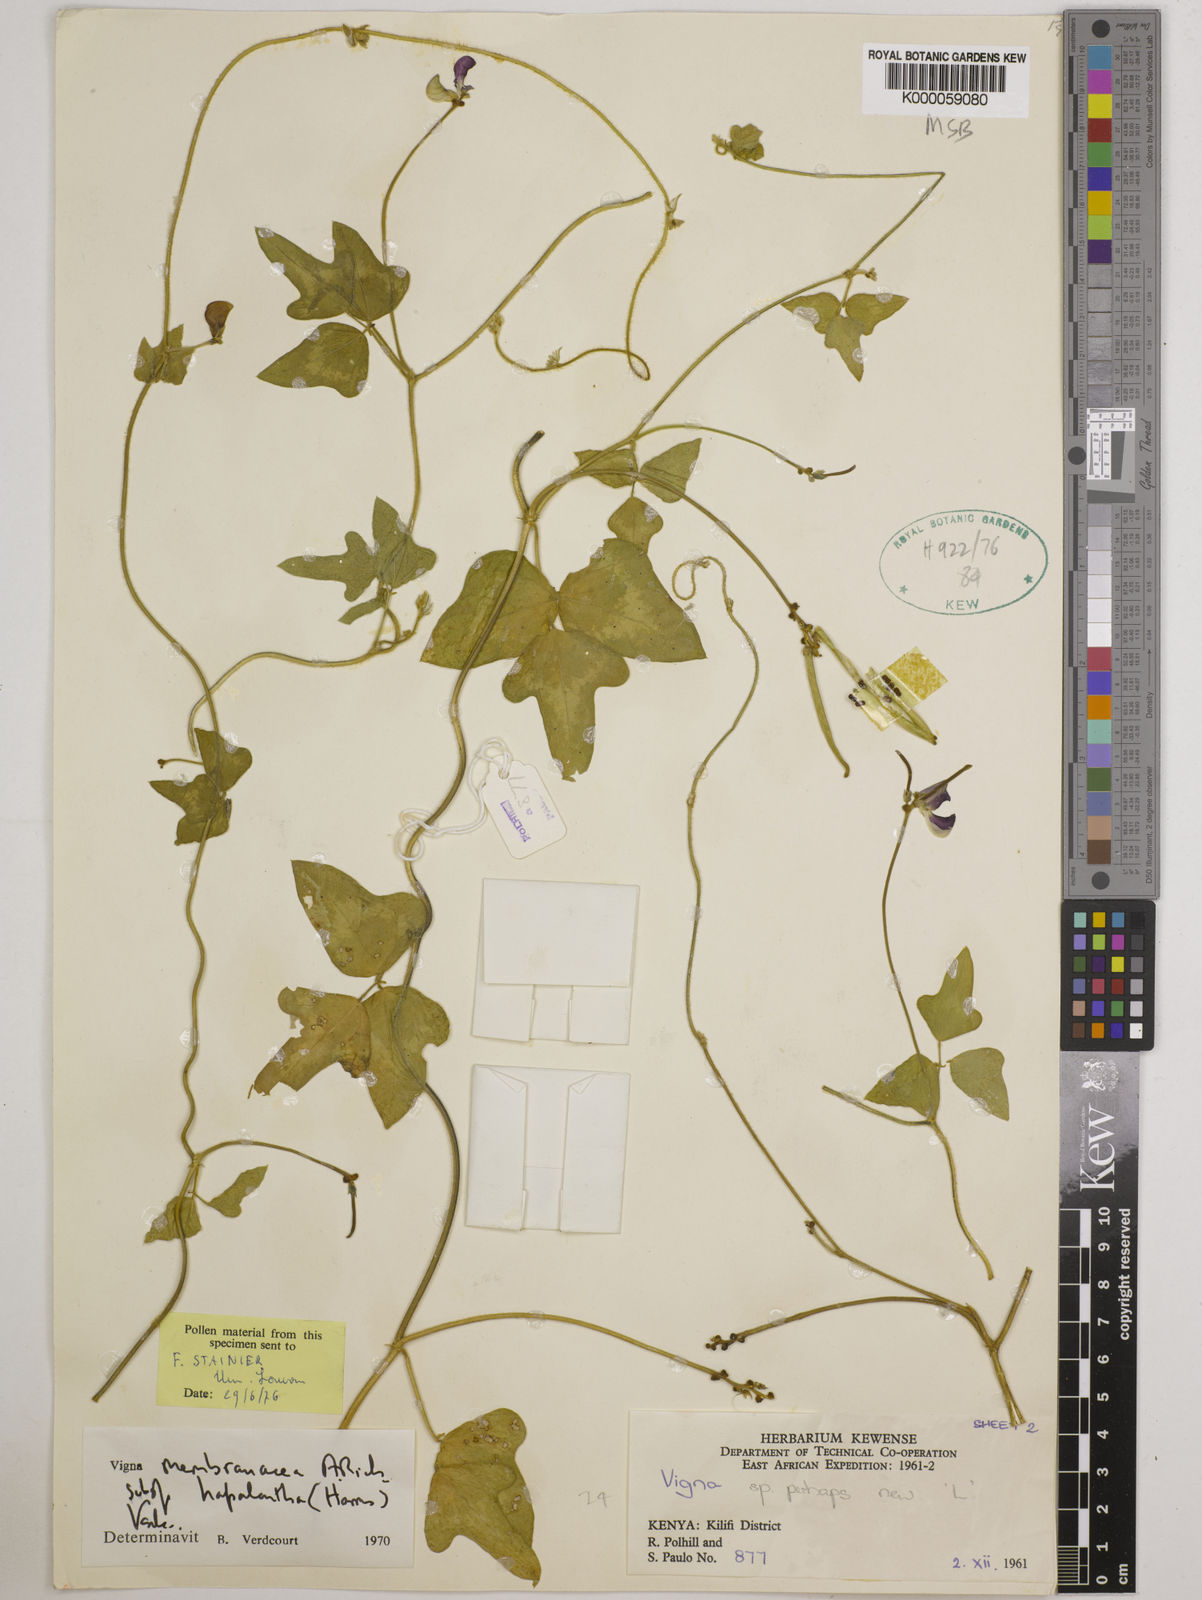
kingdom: Plantae
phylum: Tracheophyta
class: Magnoliopsida
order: Fabales
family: Fabaceae
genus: Vigna
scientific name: Vigna
